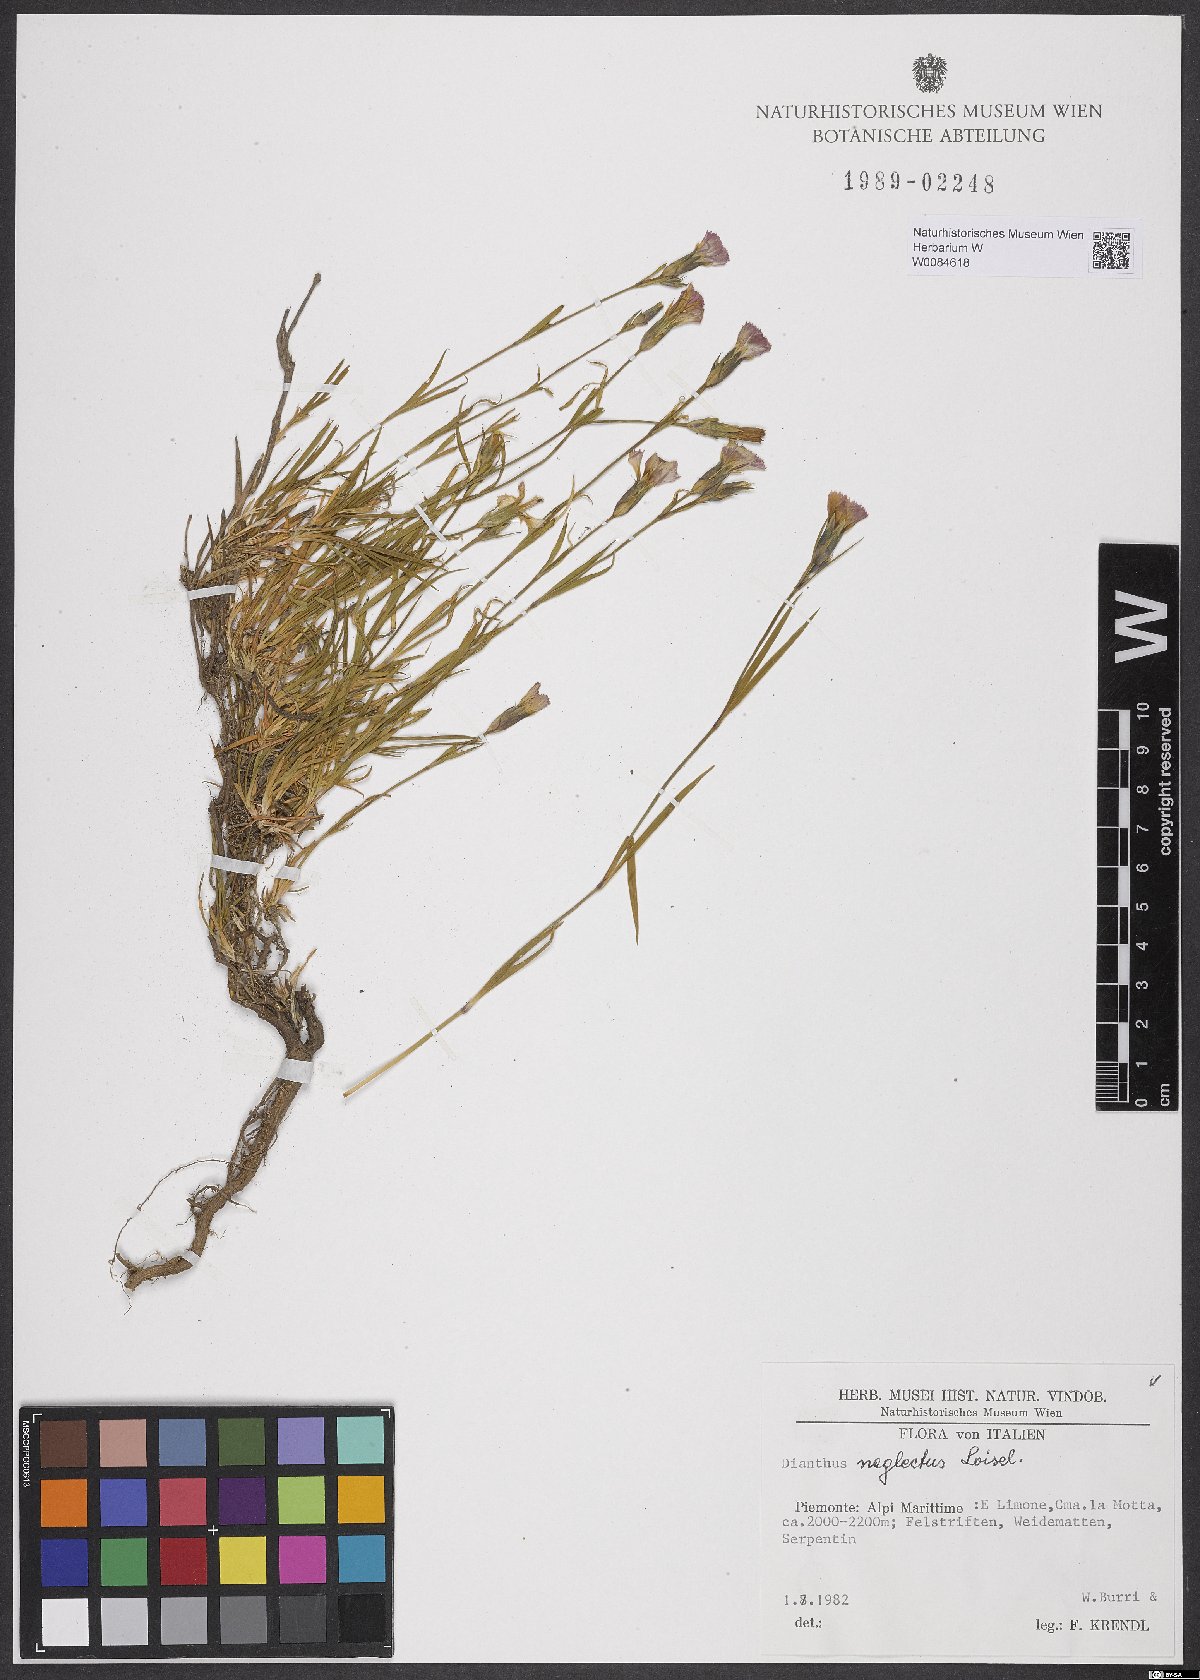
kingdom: Plantae
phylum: Tracheophyta
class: Magnoliopsida
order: Caryophyllales
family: Caryophyllaceae
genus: Dianthus
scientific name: Dianthus seguieri
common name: Ragged pink
